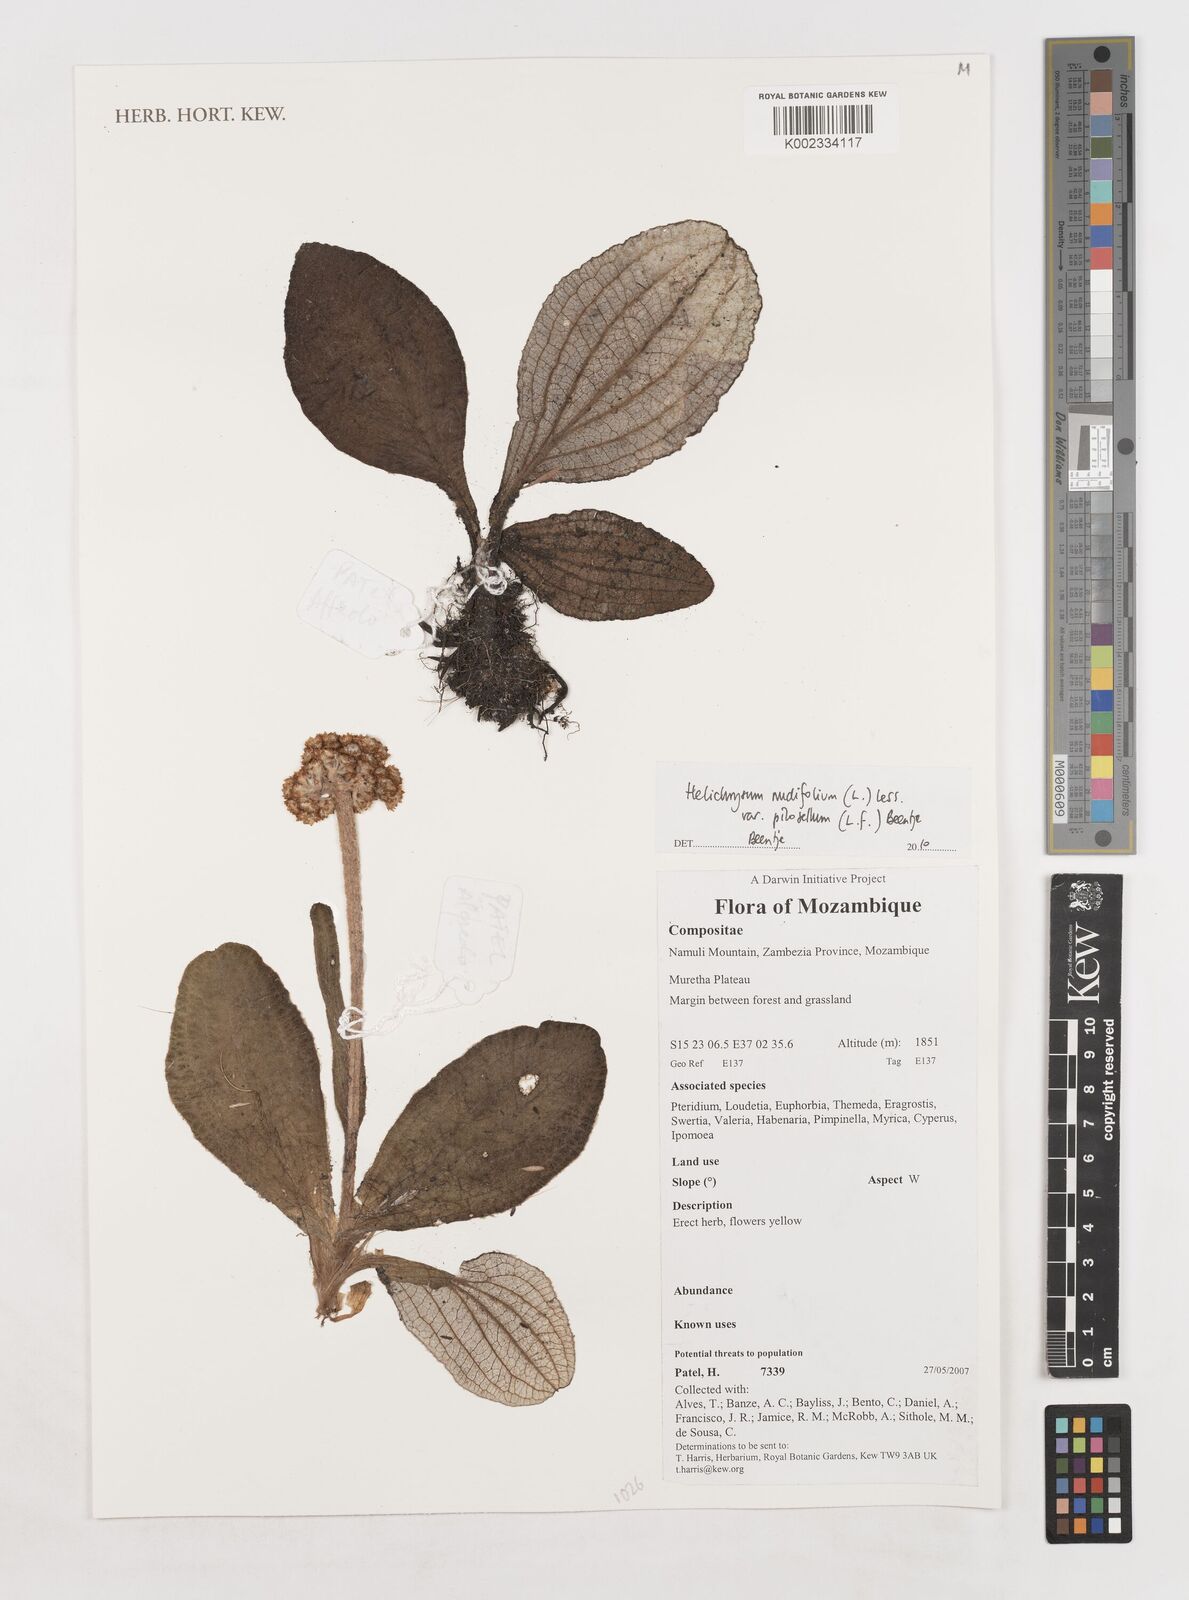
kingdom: Plantae
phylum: Tracheophyta
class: Magnoliopsida
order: Asterales
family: Asteraceae
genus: Helichrysum
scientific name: Helichrysum nudifolium
